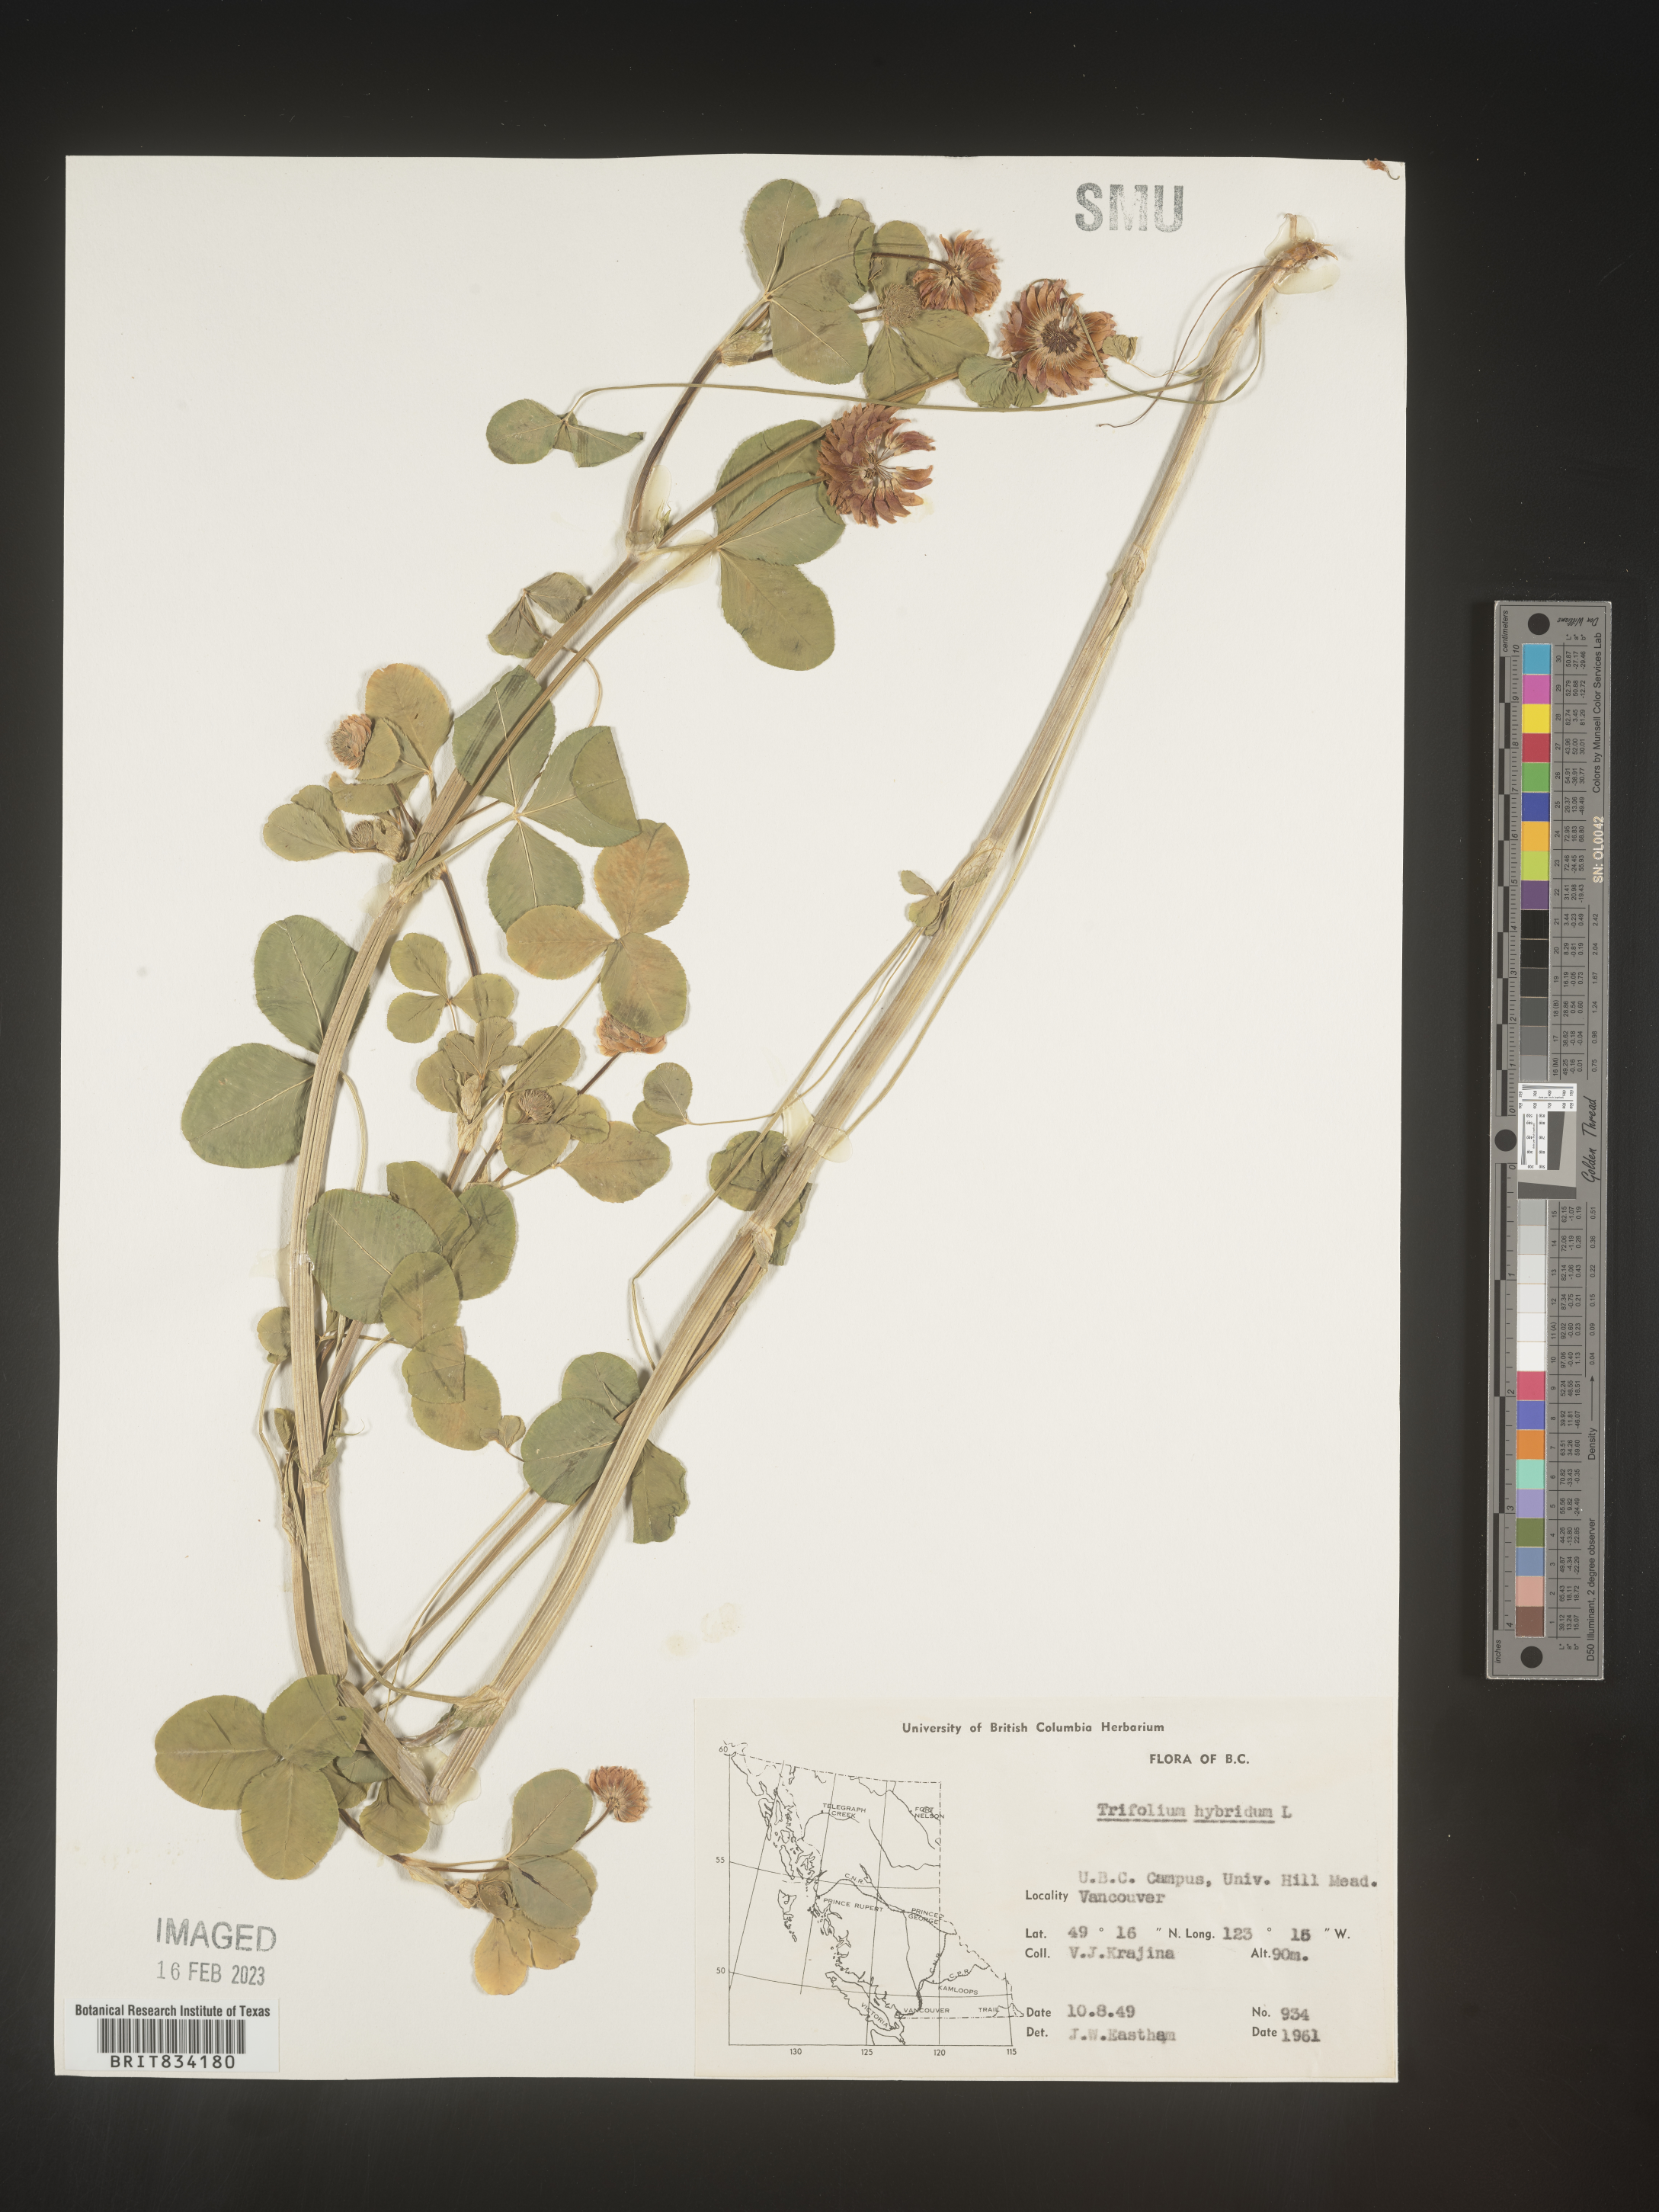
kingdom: Plantae
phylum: Tracheophyta
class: Magnoliopsida
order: Fabales
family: Fabaceae
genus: Trifolium
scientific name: Trifolium hybridum
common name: Alsike clover
